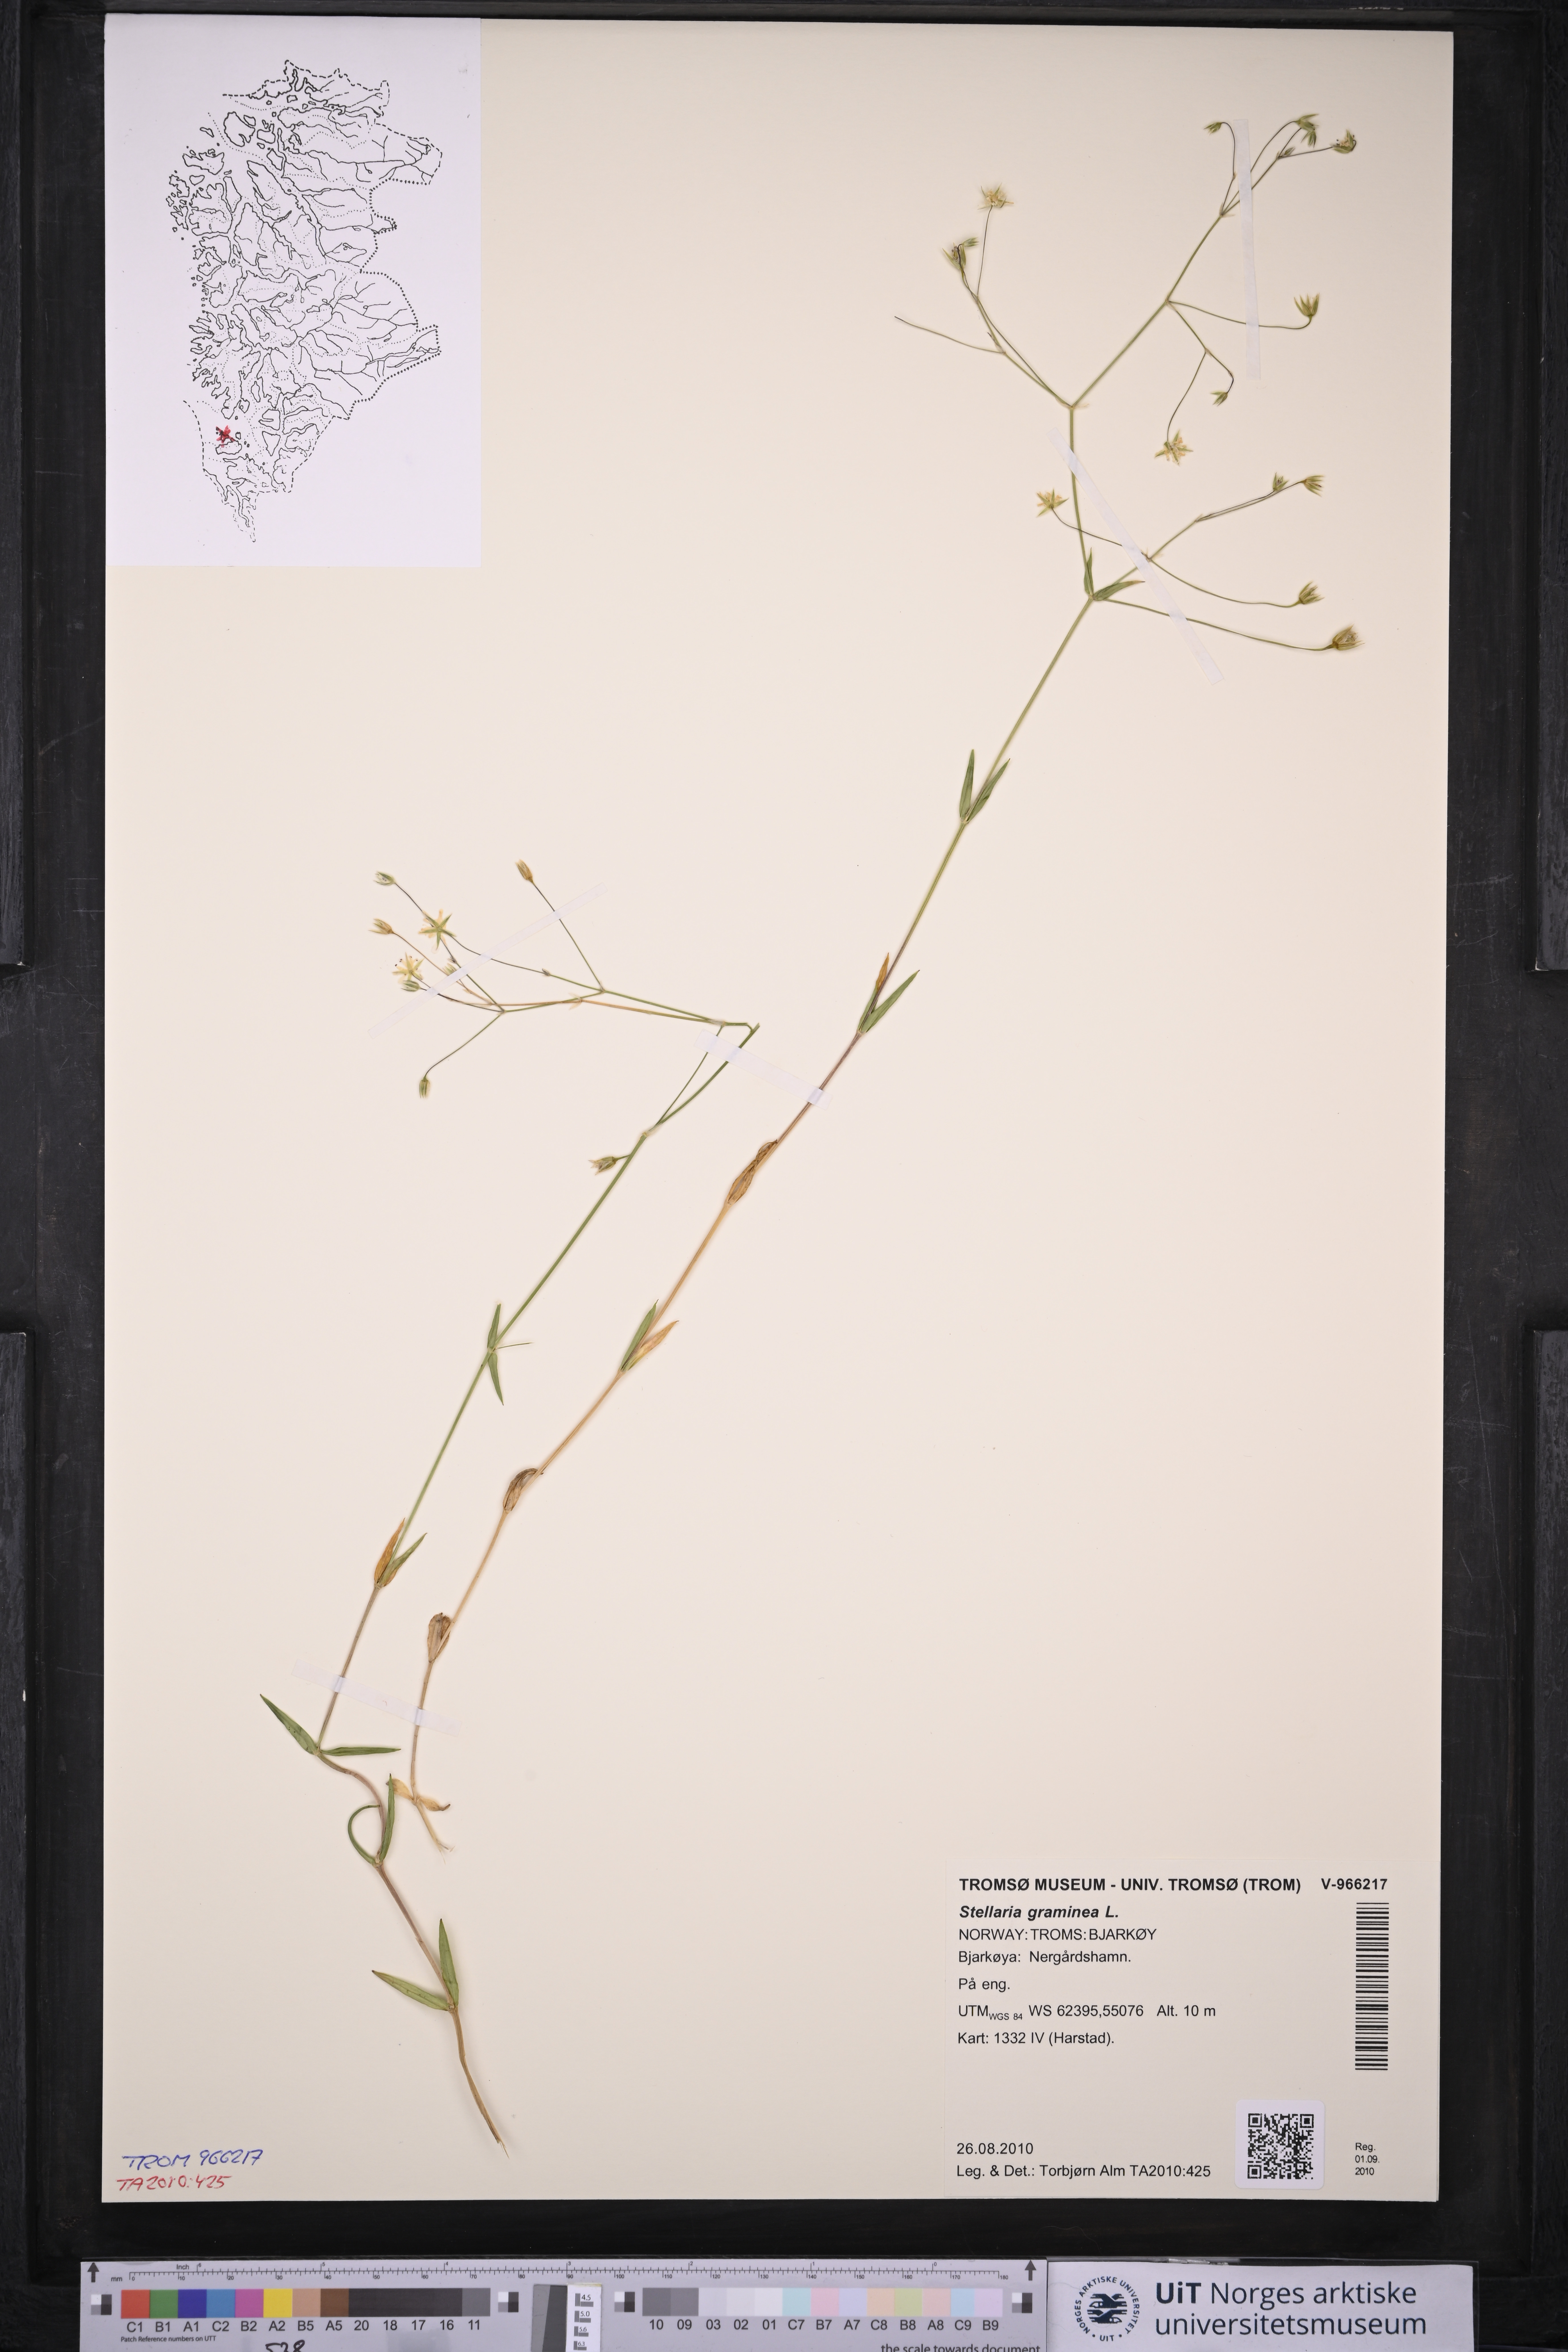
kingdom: Plantae
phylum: Tracheophyta
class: Magnoliopsida
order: Caryophyllales
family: Caryophyllaceae
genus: Stellaria
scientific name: Stellaria graminea
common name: Grass-like starwort
